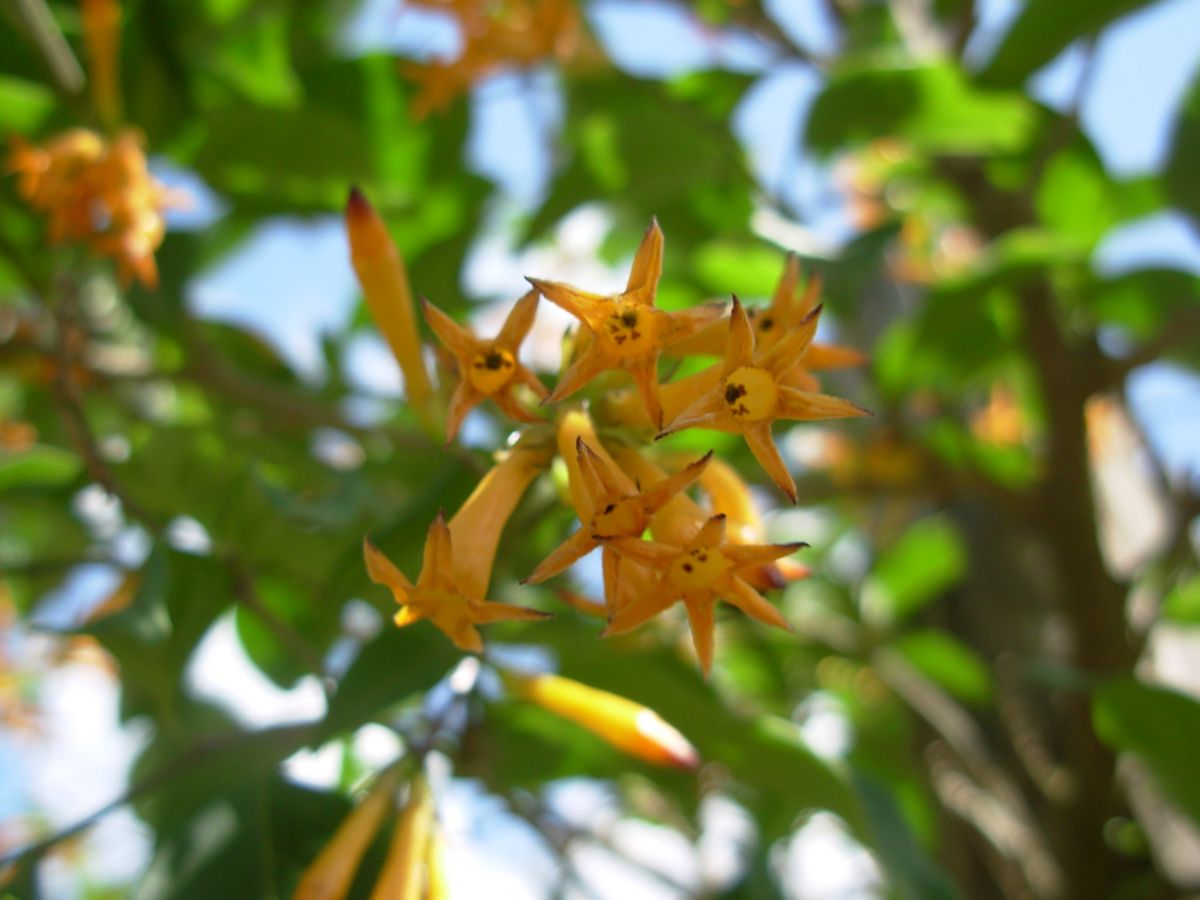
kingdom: Plantae
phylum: Tracheophyta
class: Magnoliopsida
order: Solanales
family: Solanaceae
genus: Cestrum
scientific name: Cestrum aurantiacum
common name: Orange cestrum
